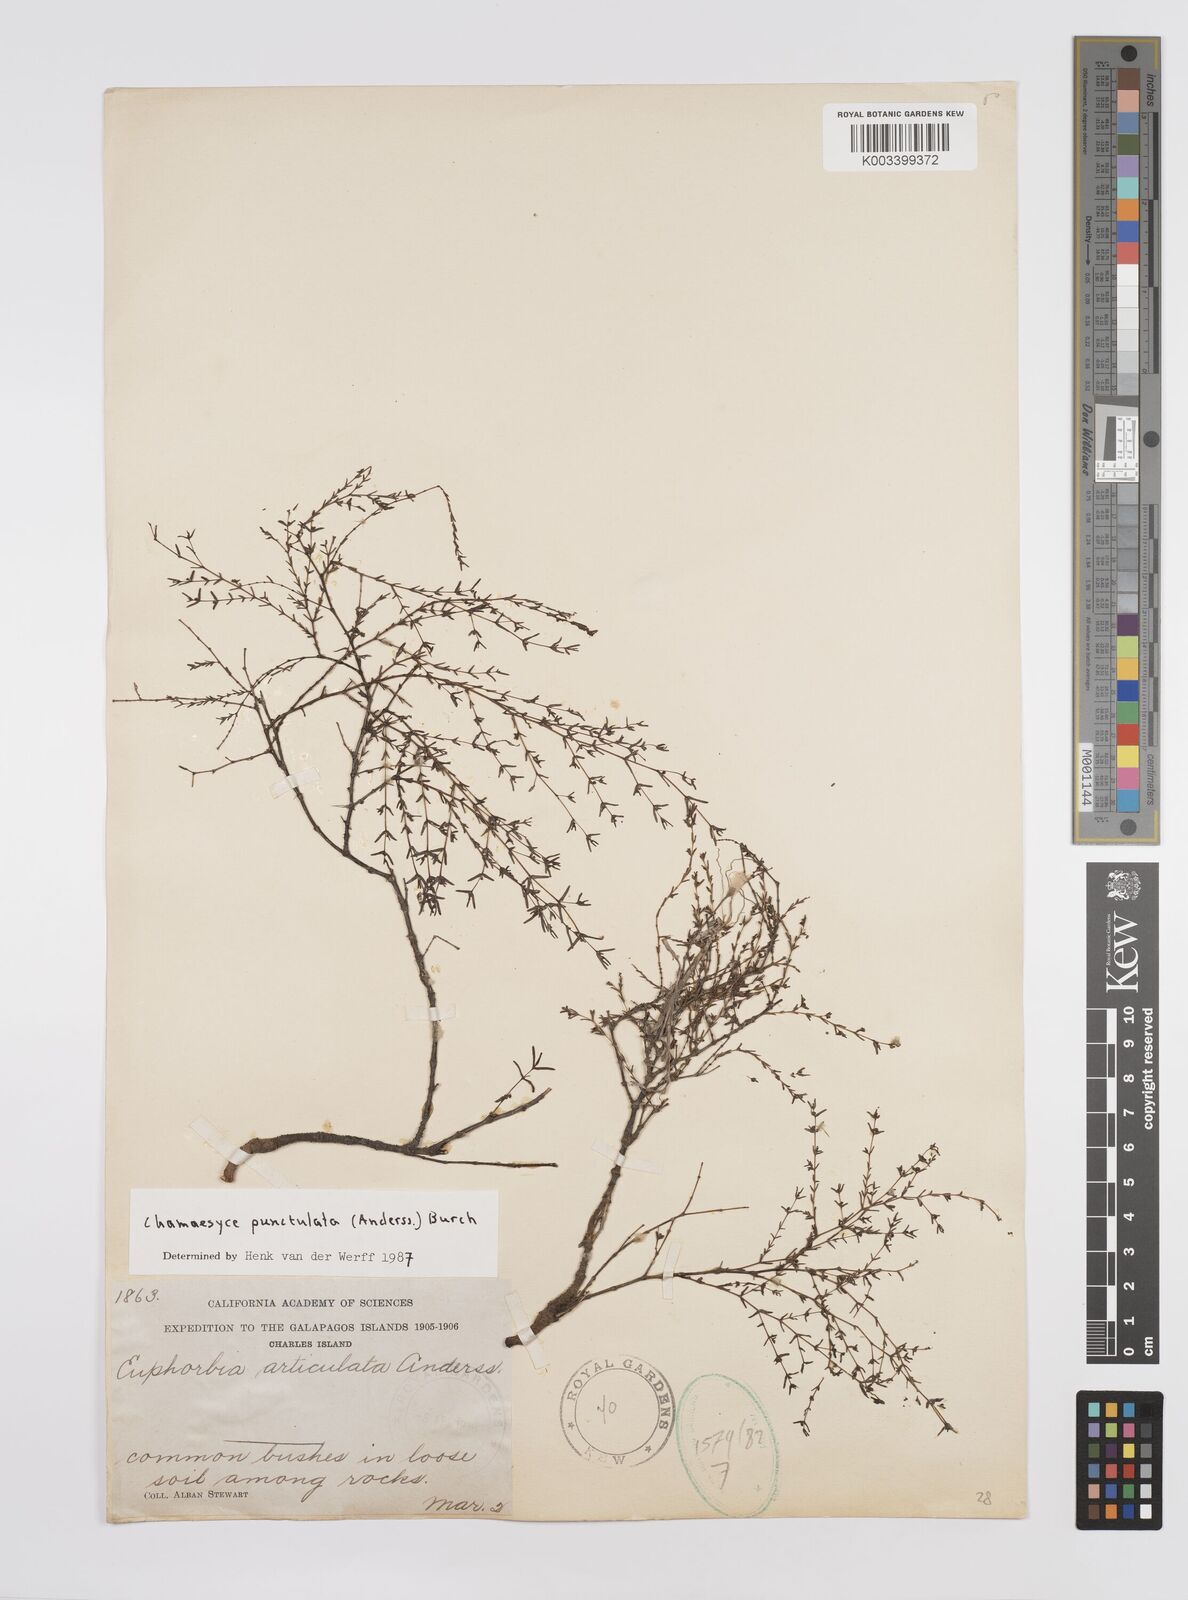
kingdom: Plantae
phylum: Tracheophyta
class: Magnoliopsida
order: Malpighiales
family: Euphorbiaceae
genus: Euphorbia
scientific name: Euphorbia punctulata
